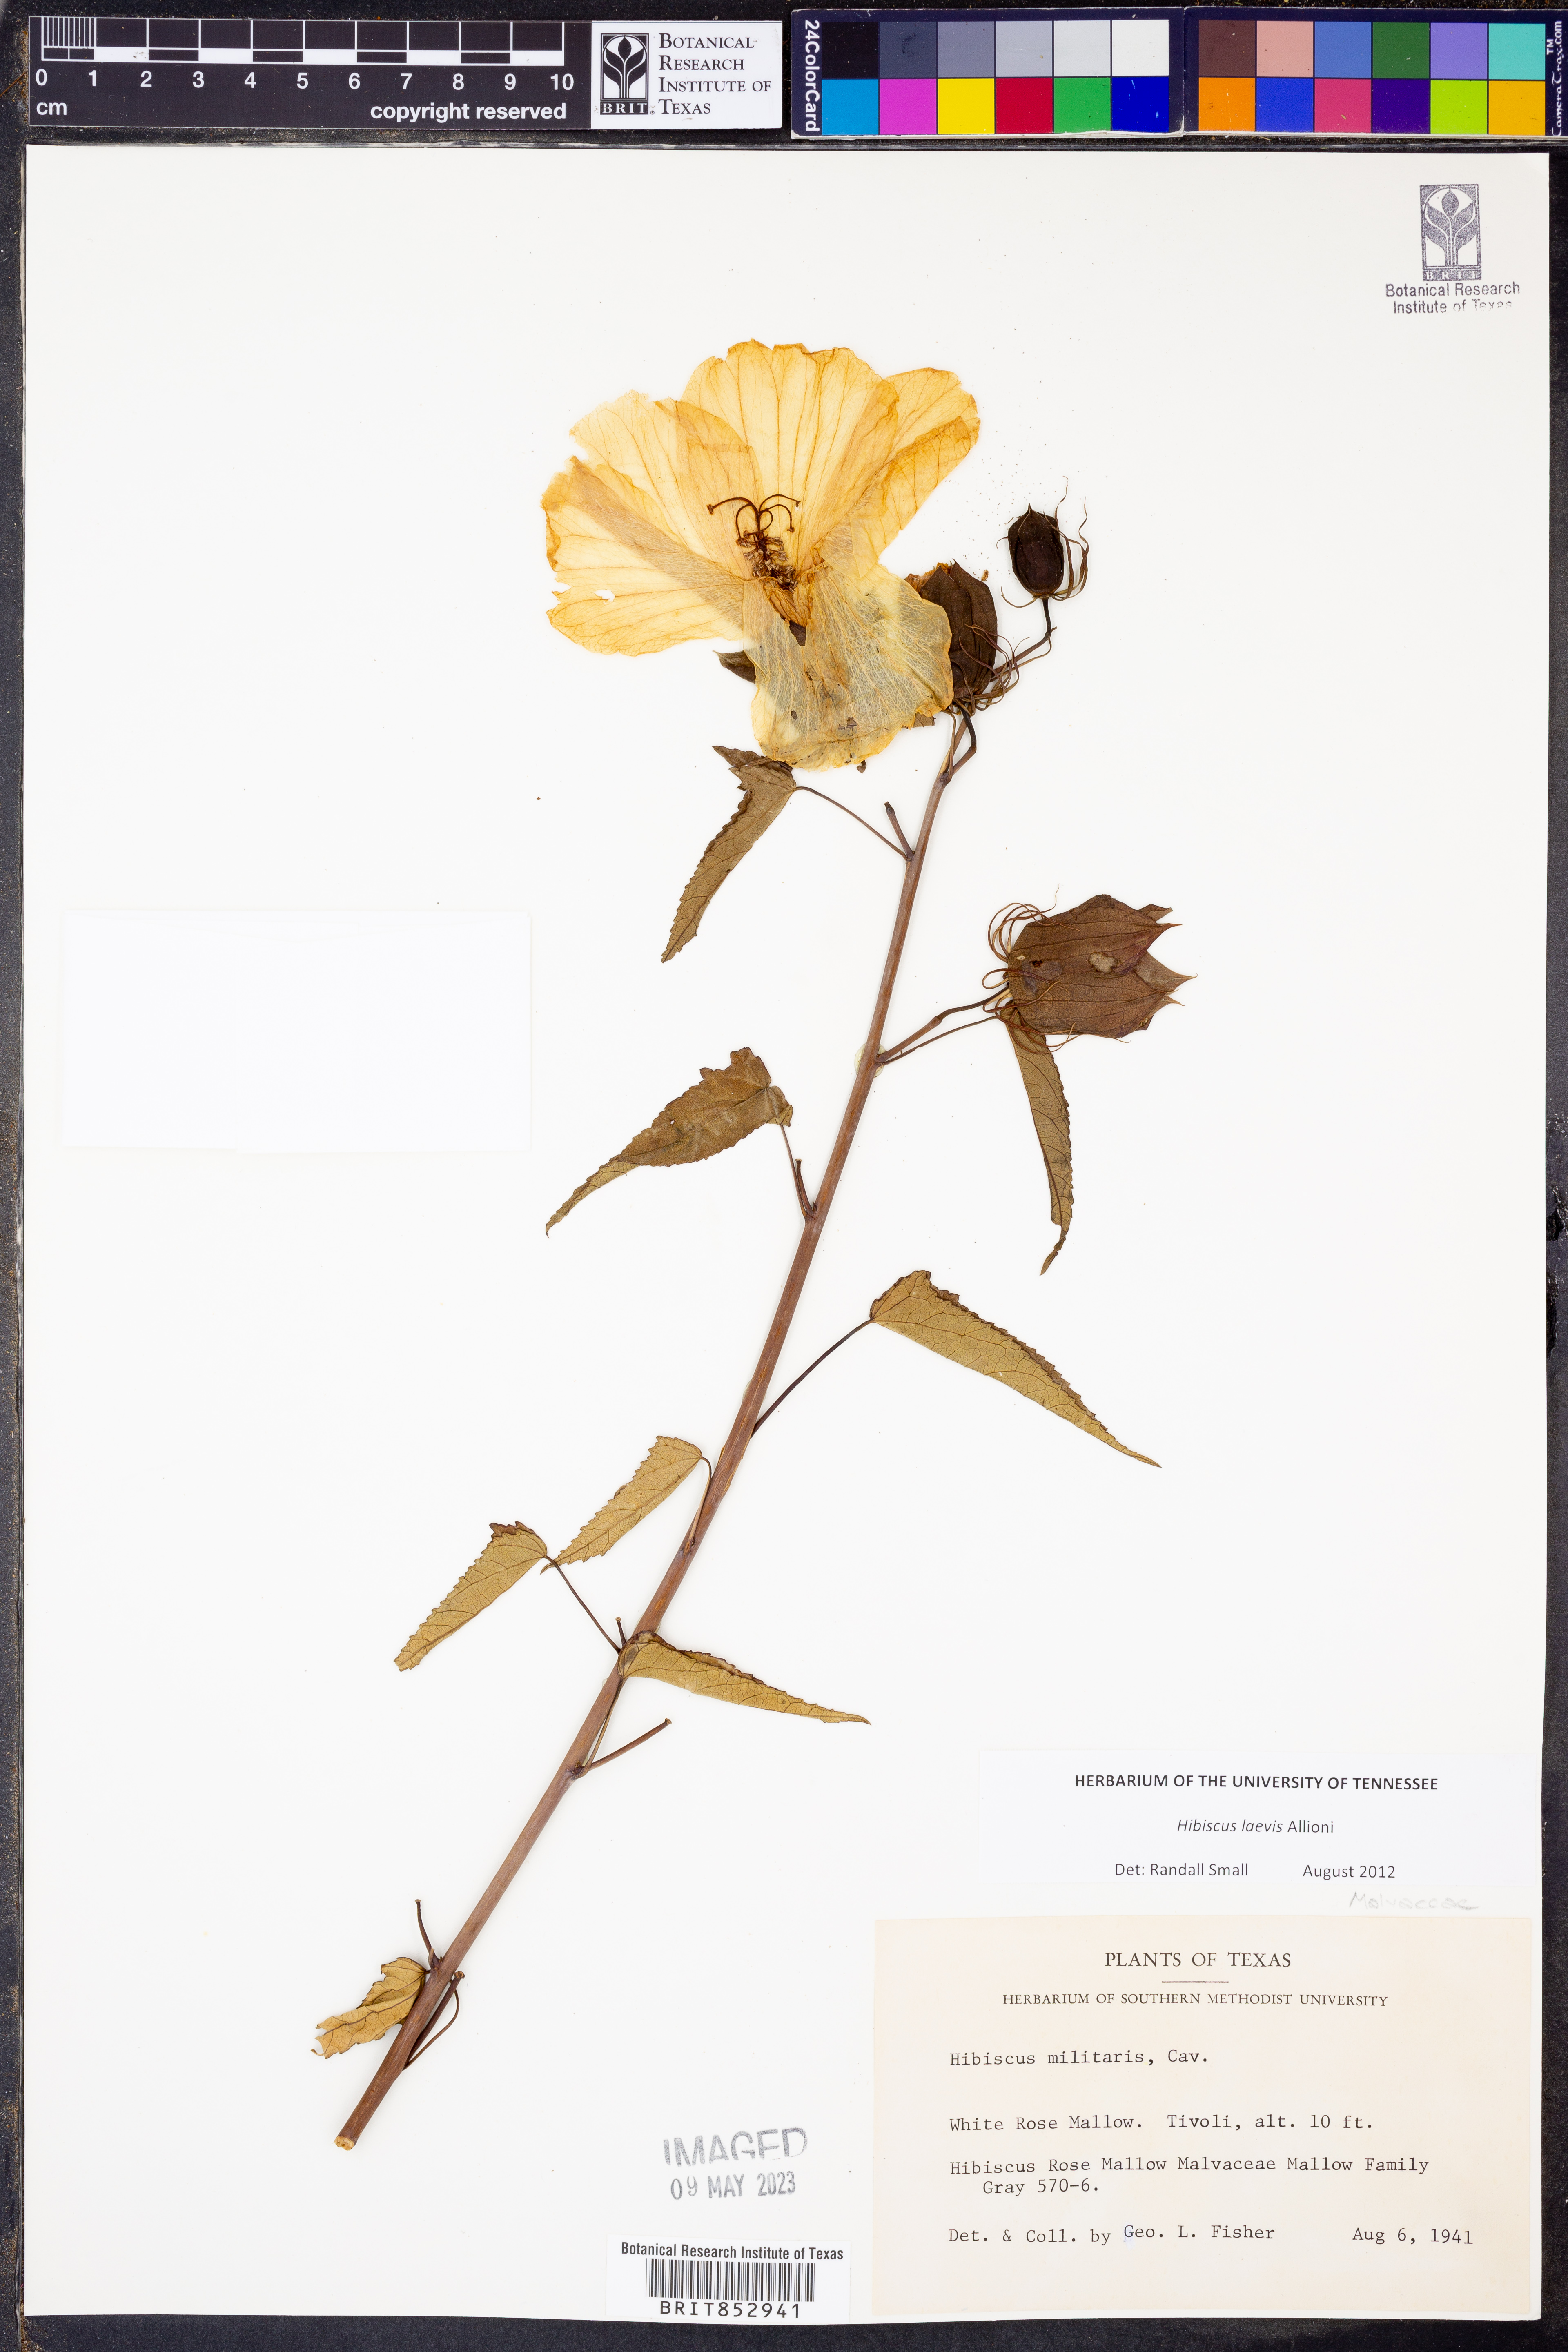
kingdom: Plantae
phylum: Tracheophyta
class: Magnoliopsida
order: Malvales
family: Malvaceae
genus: Hibiscus
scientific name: Hibiscus laevis
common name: Scarlet rose-mallow
